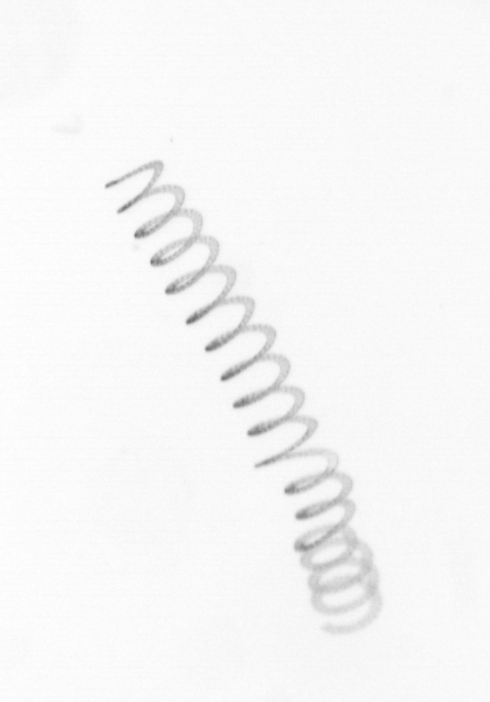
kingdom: Chromista
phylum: Ochrophyta
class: Bacillariophyceae
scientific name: Bacillariophyceae
